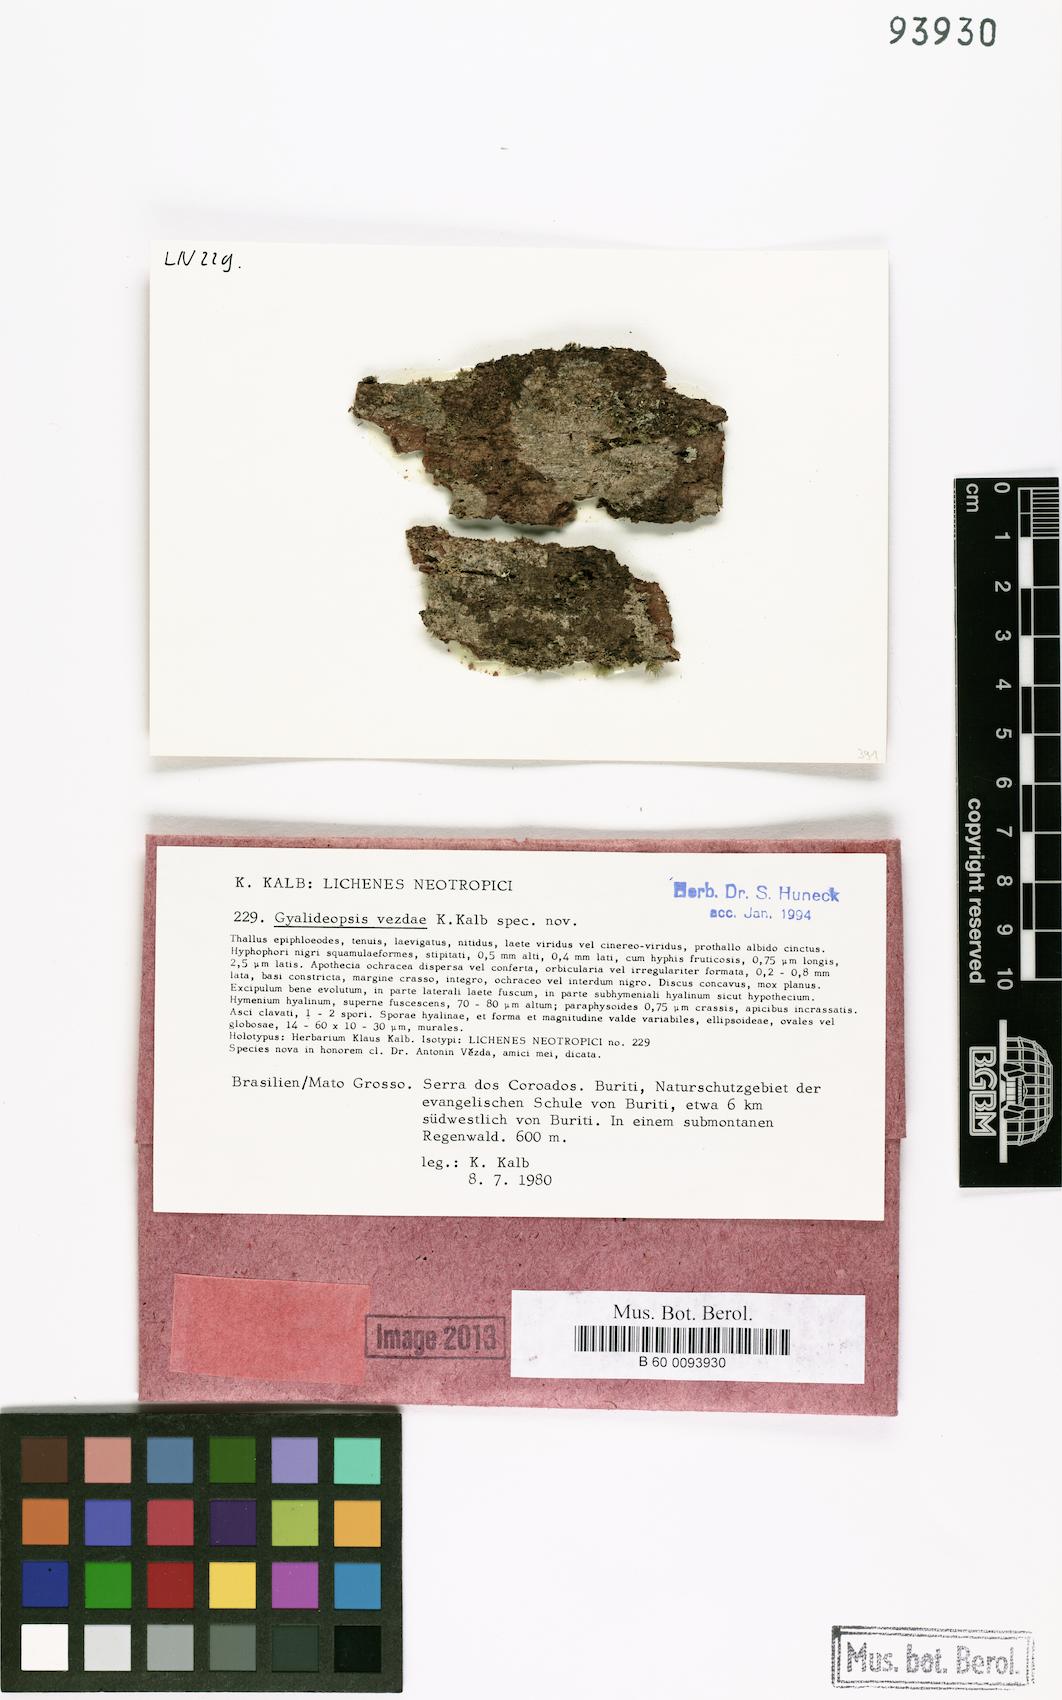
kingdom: Fungi
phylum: Ascomycota
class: Lecanoromycetes
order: Ostropales
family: Gomphillaceae
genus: Gyalideopsis
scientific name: Gyalideopsis
